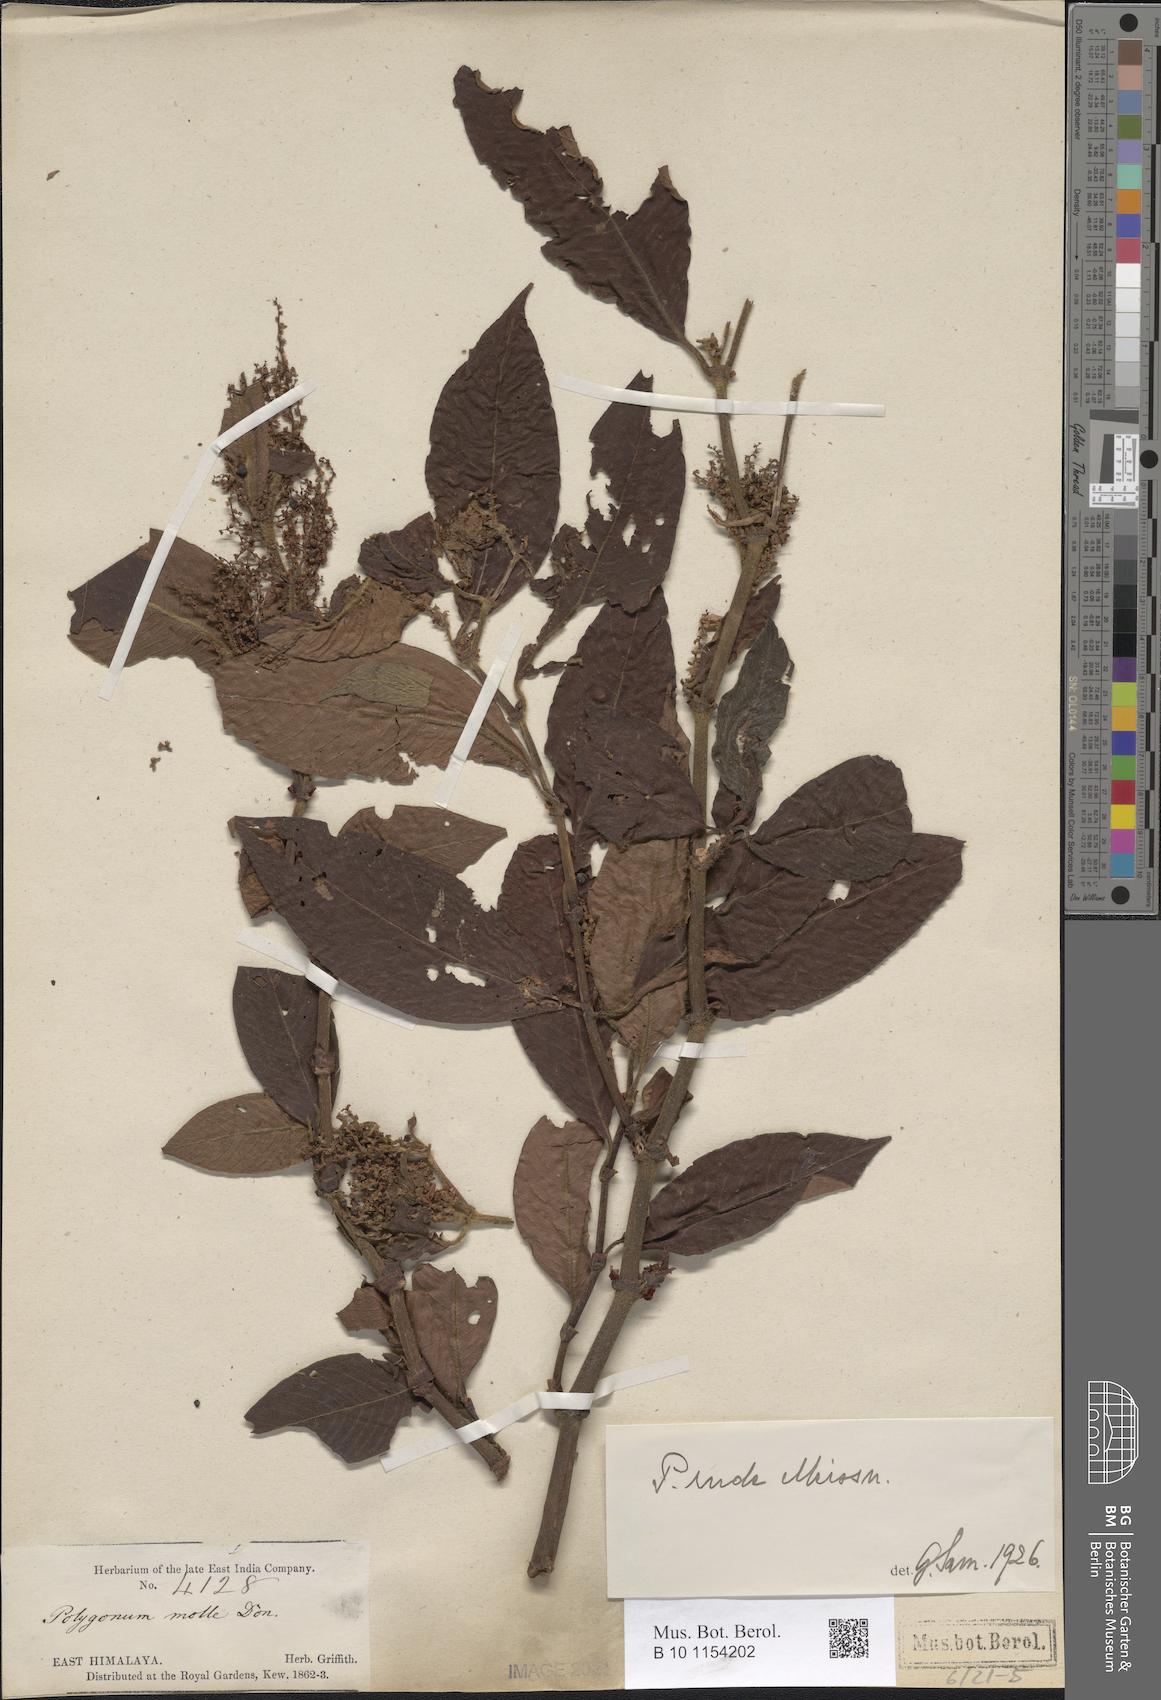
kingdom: Plantae
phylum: Tracheophyta
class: Magnoliopsida
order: Caryophyllales
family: Polygonaceae
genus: Koenigia
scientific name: Koenigia mollis
